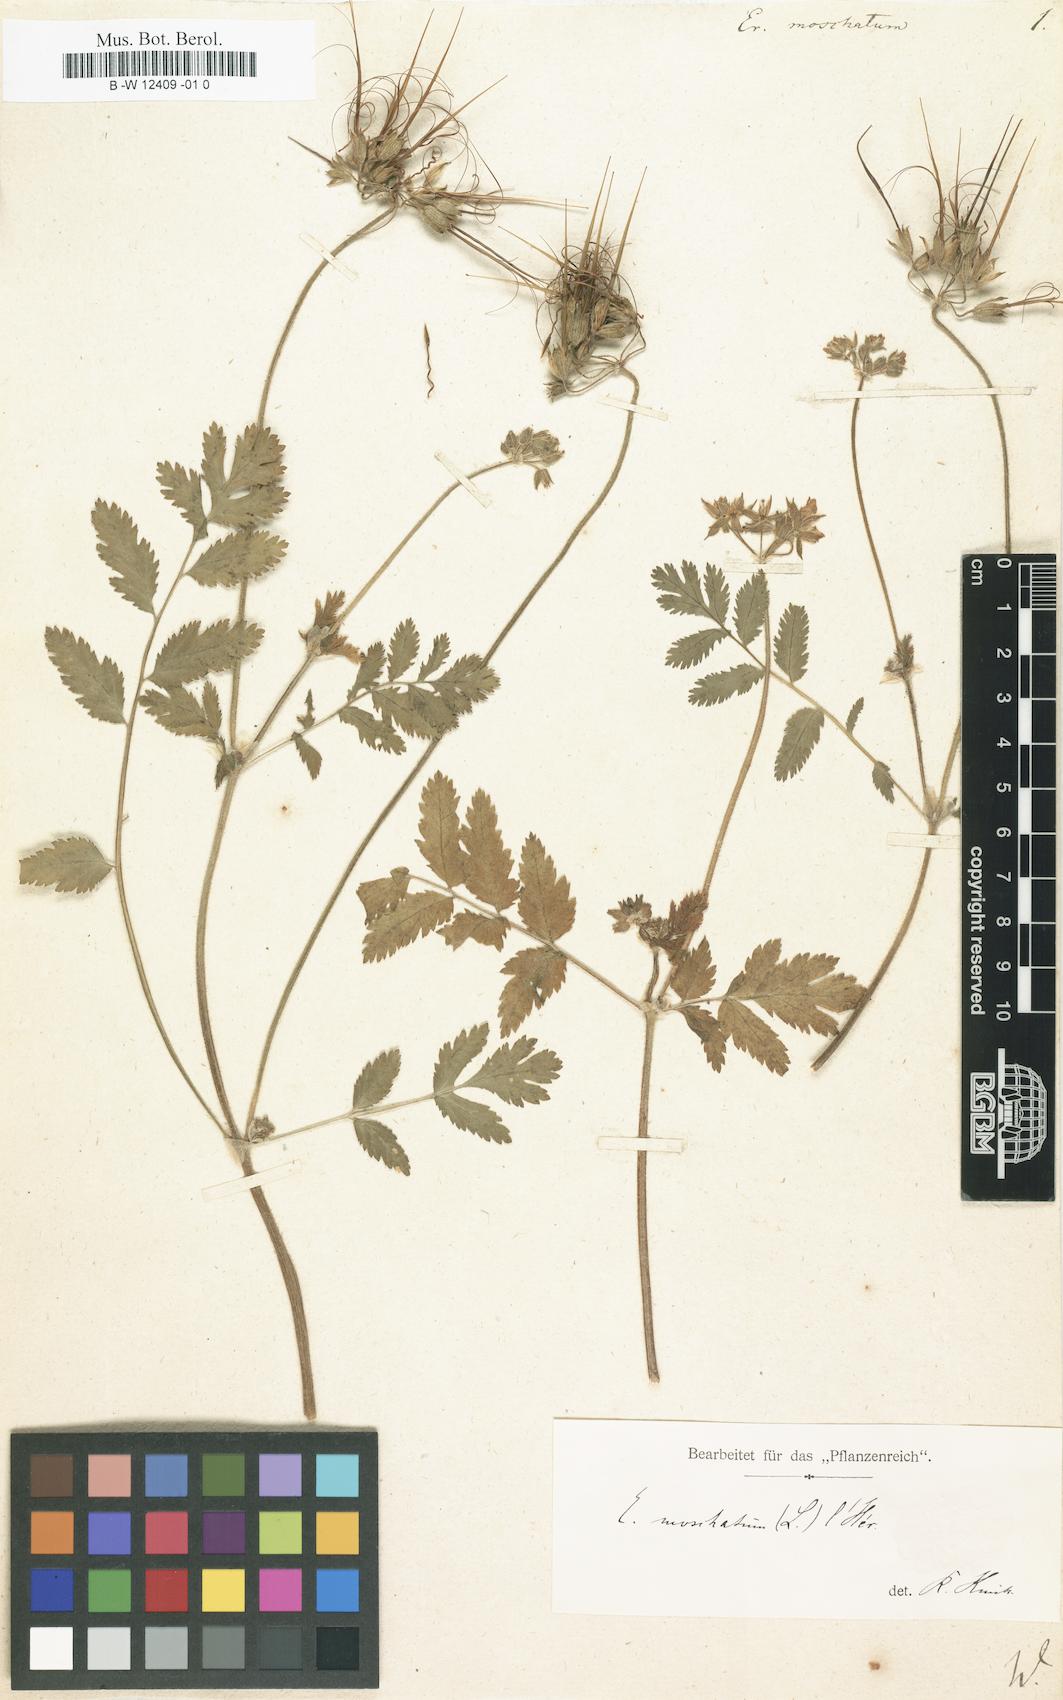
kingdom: Plantae
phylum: Tracheophyta
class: Magnoliopsida
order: Geraniales
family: Geraniaceae
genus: Erodium
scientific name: Erodium moschatum
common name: Musk stork's-bill
